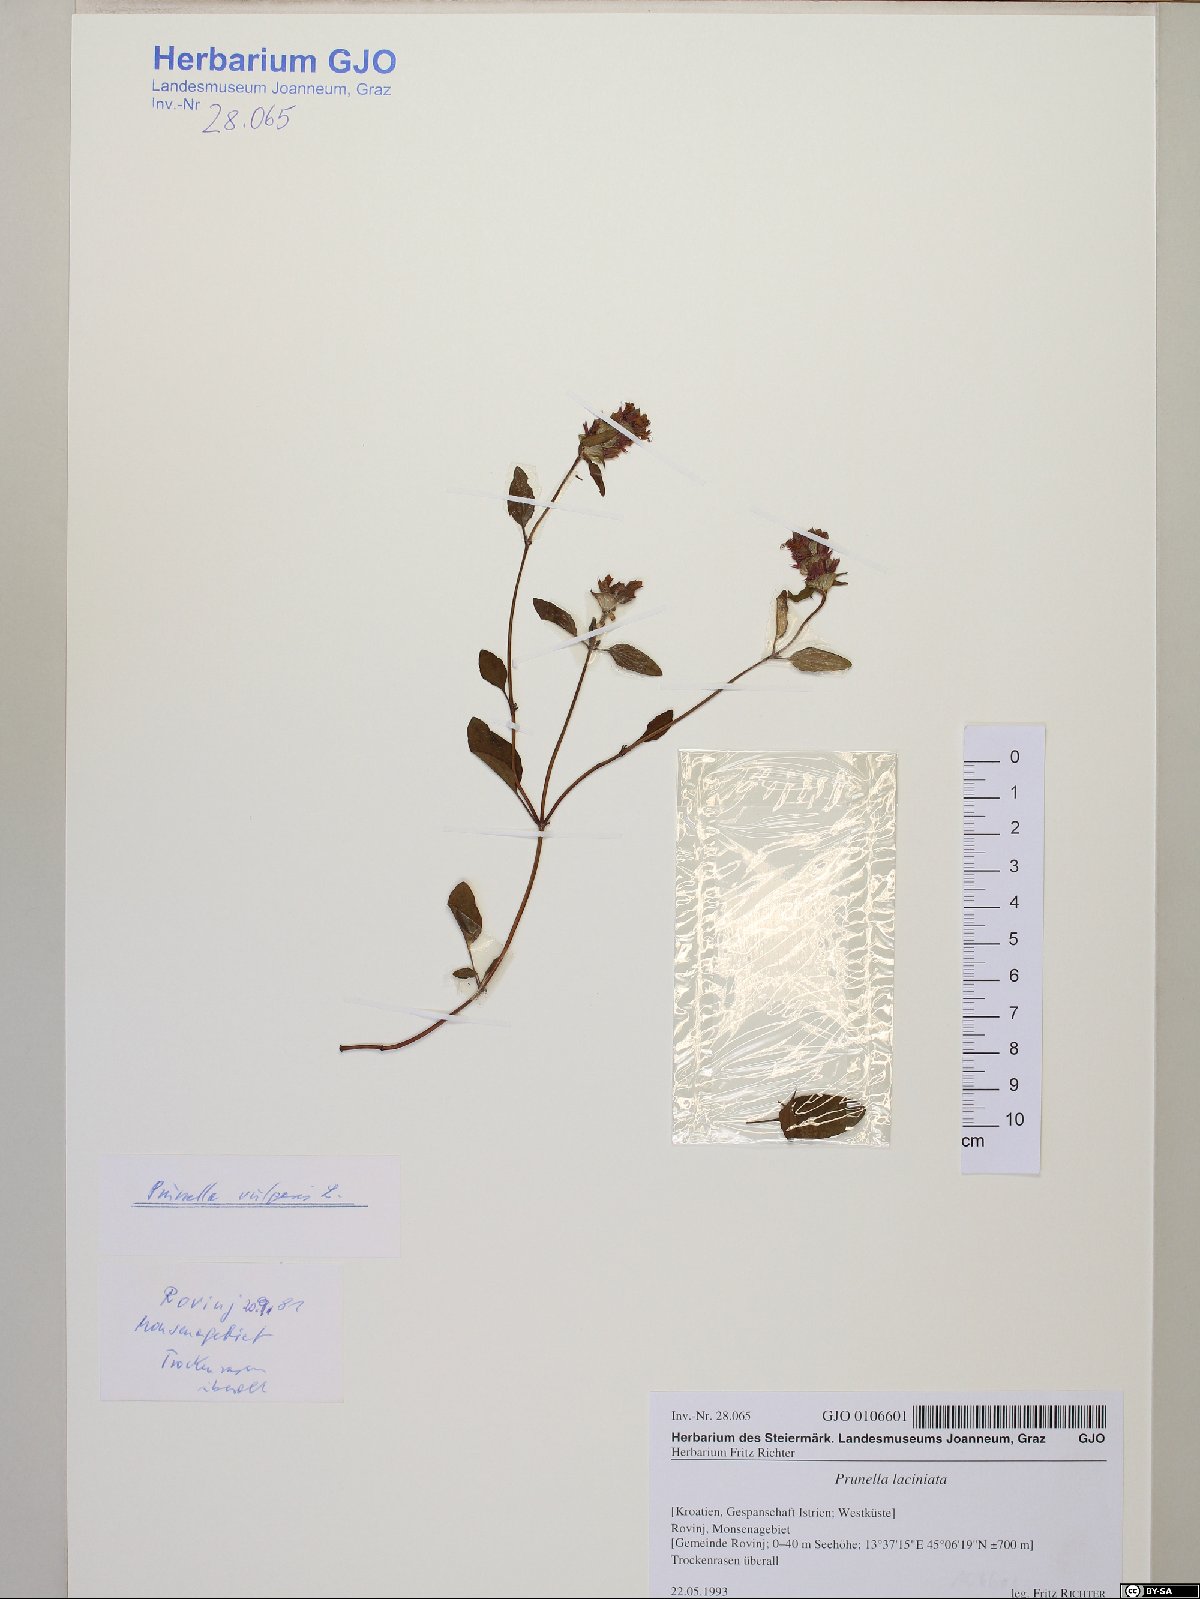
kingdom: Plantae
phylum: Tracheophyta
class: Magnoliopsida
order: Lamiales
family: Lamiaceae
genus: Prunella
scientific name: Prunella vulgaris
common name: Heal-all
